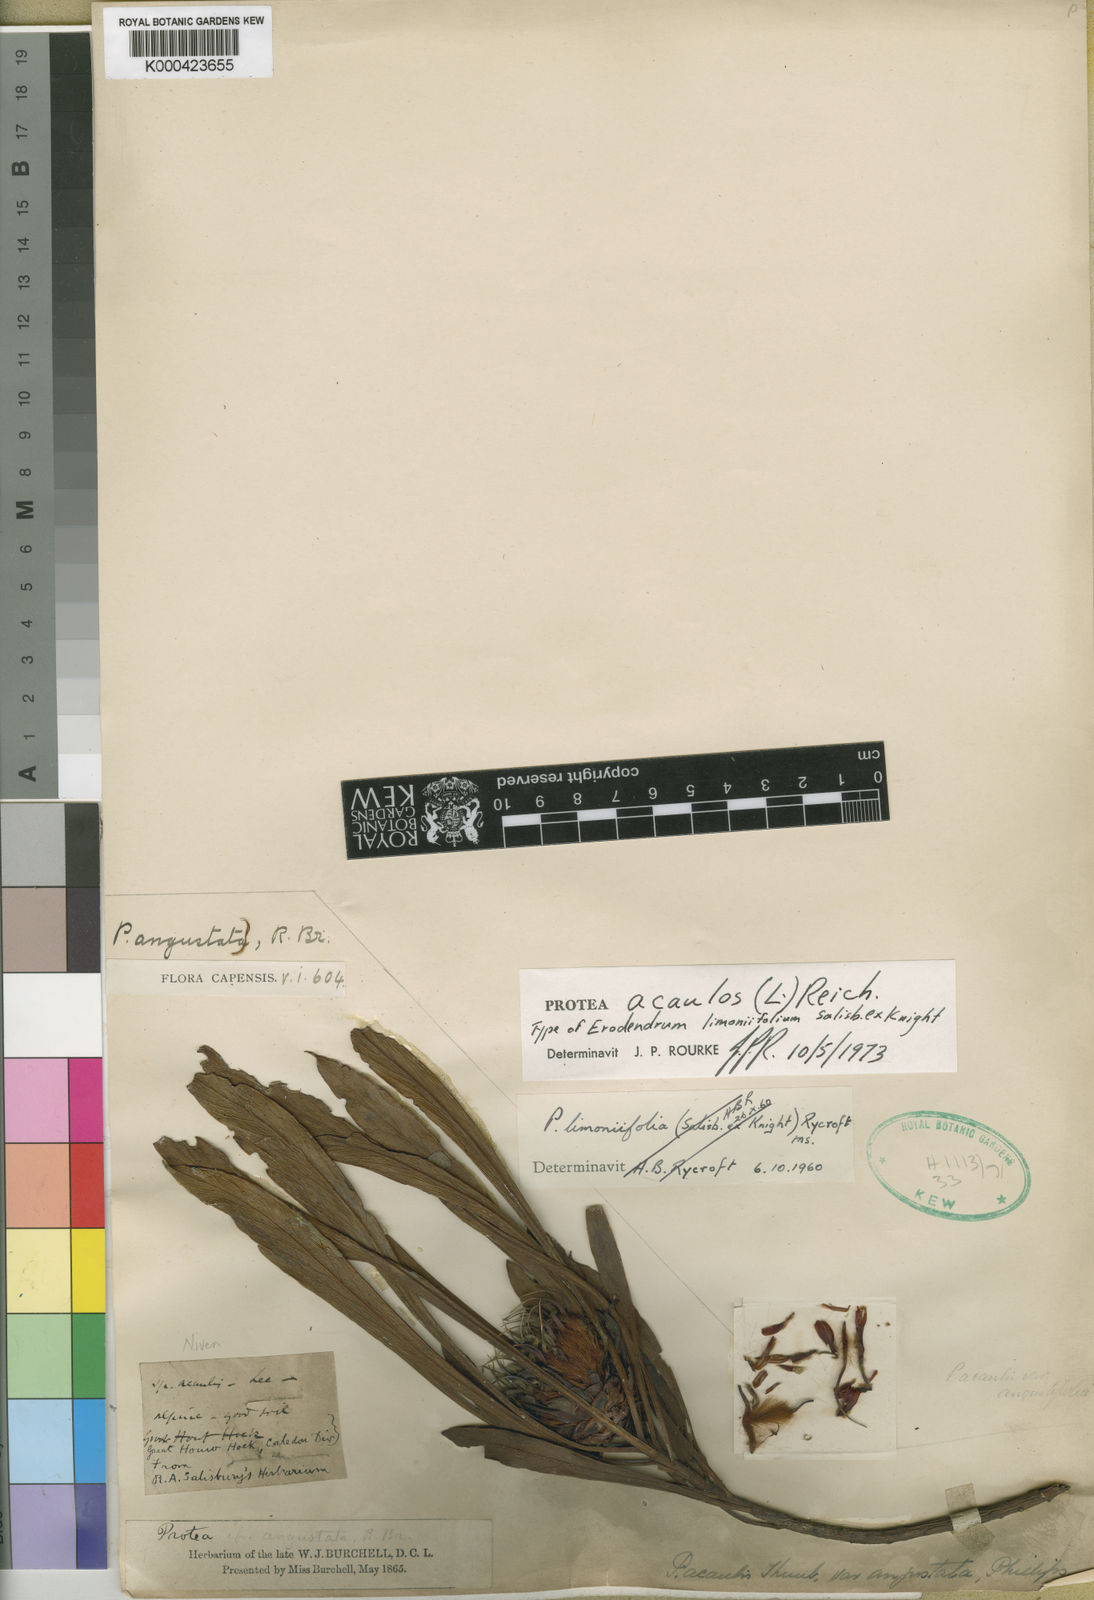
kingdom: Plantae
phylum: Tracheophyta
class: Magnoliopsida
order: Proteales
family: Proteaceae
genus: Protea
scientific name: Protea acaulos
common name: Common ground sugarbush
